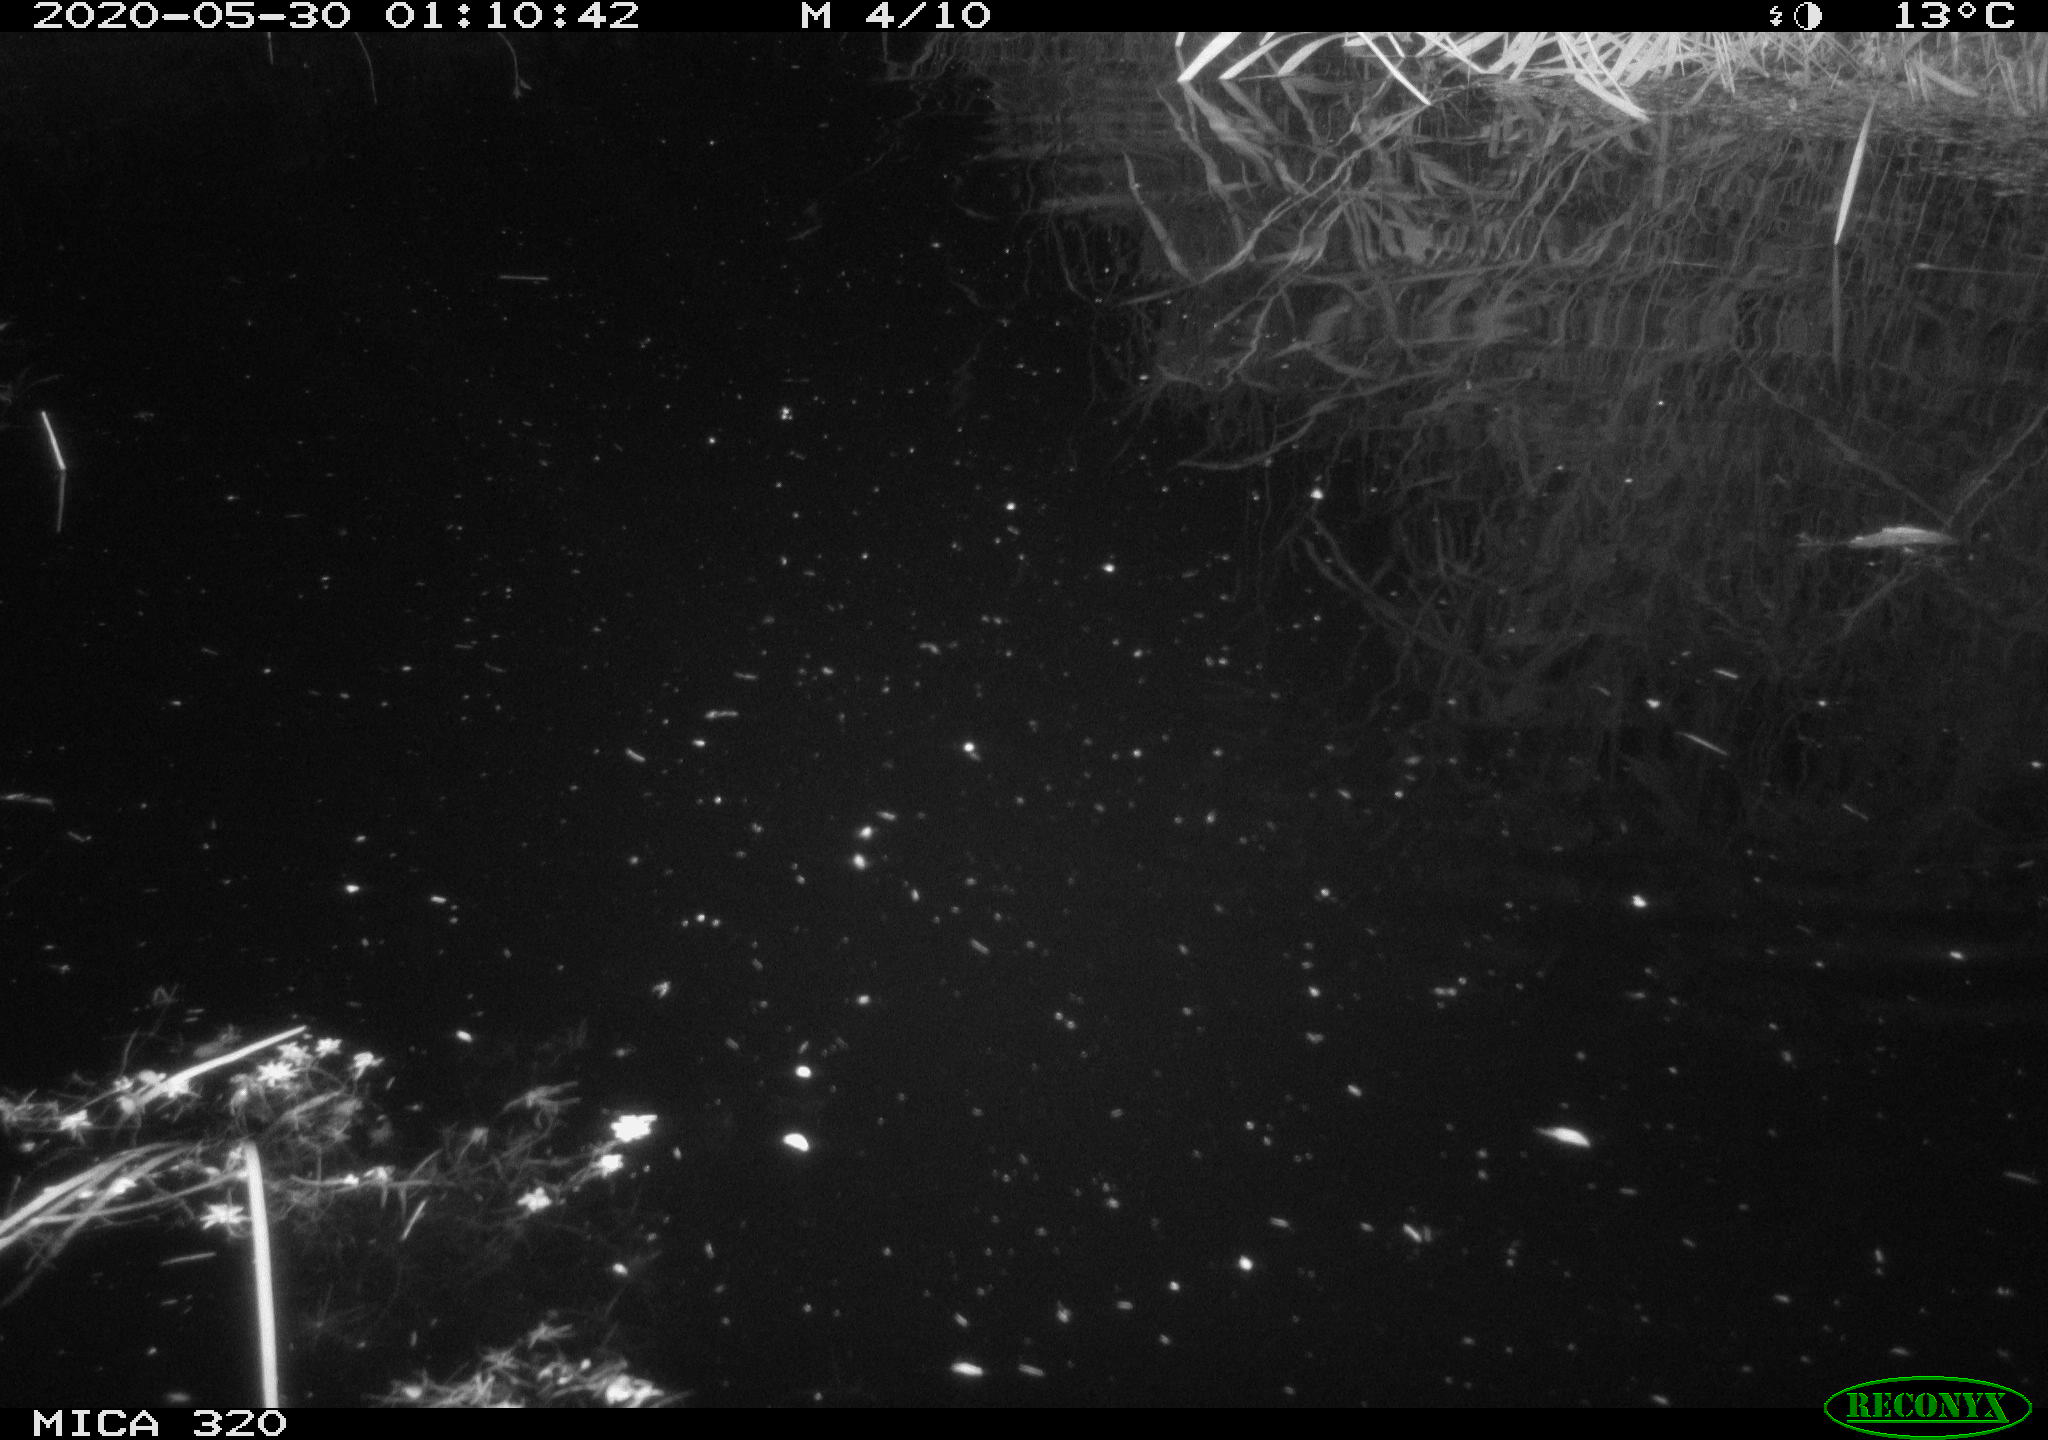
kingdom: Animalia
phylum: Chordata
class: Aves
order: Anseriformes
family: Anatidae
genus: Anas
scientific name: Anas platyrhynchos
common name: Mallard
